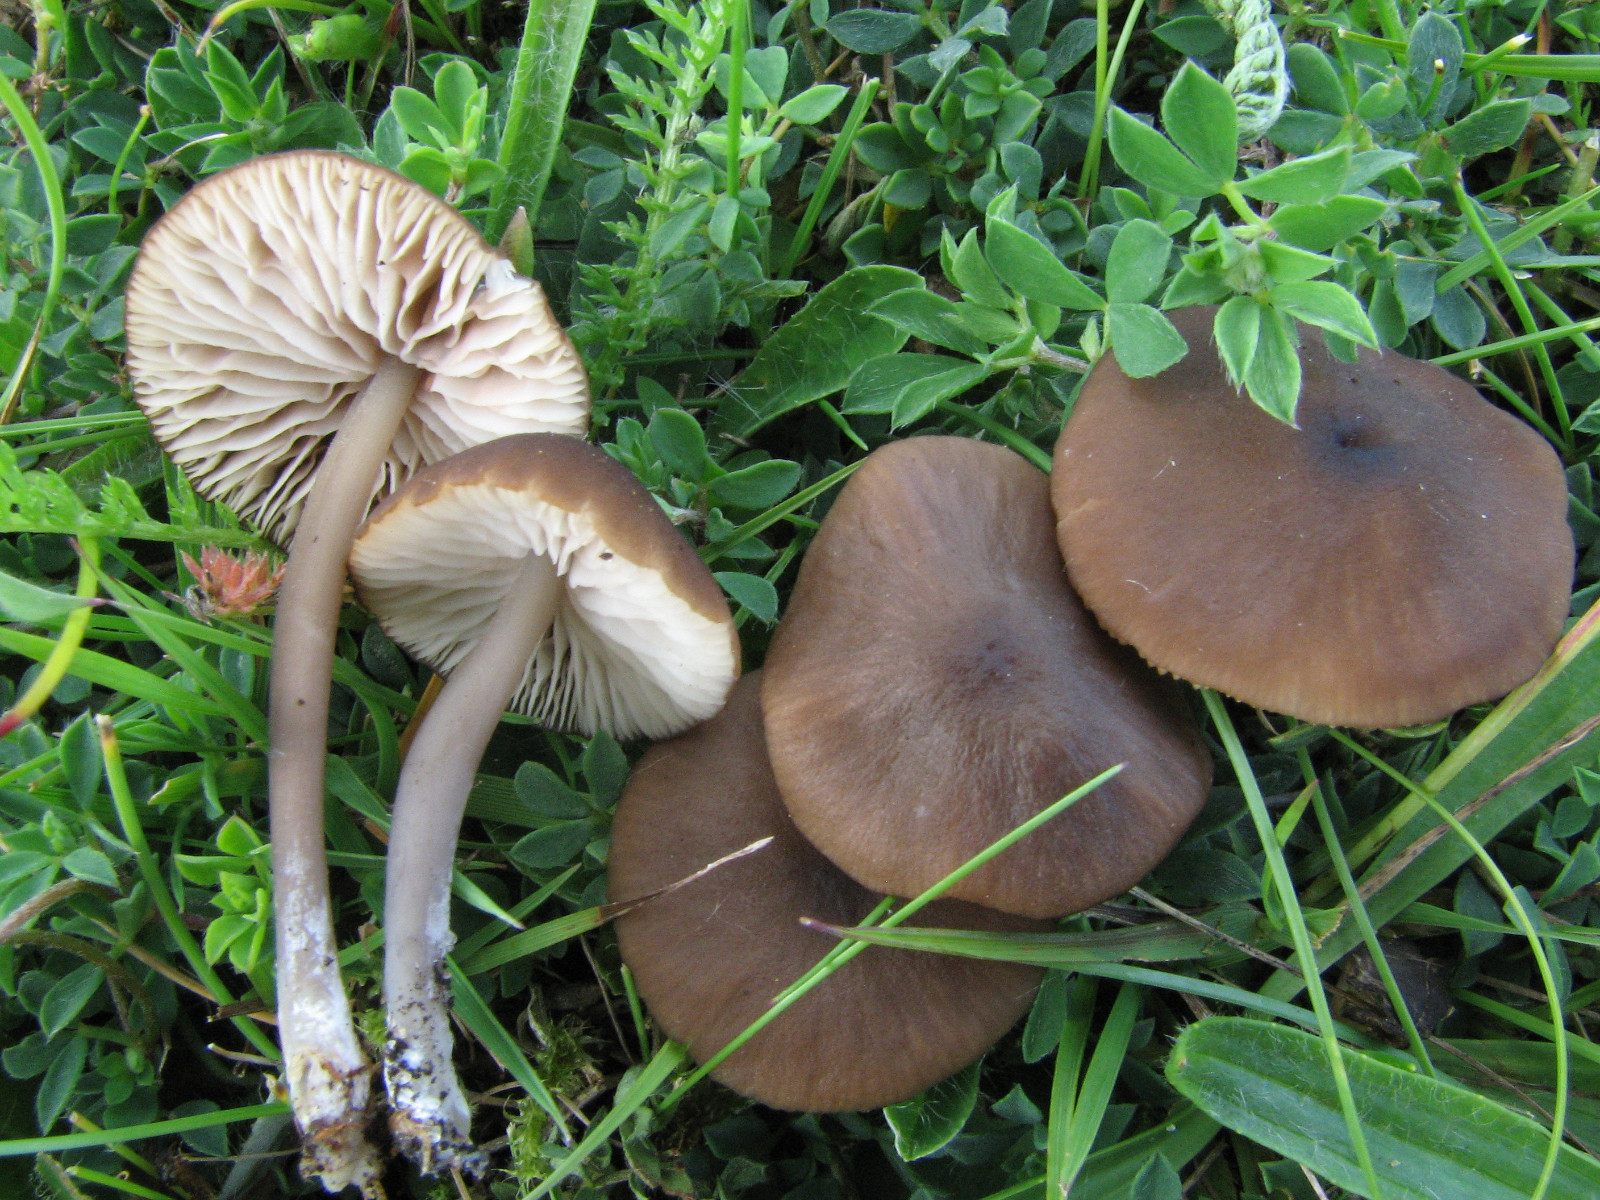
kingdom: Fungi
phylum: Basidiomycota
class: Agaricomycetes
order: Agaricales
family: Entolomataceae
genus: Entoloma
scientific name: Entoloma minutigranulosum
